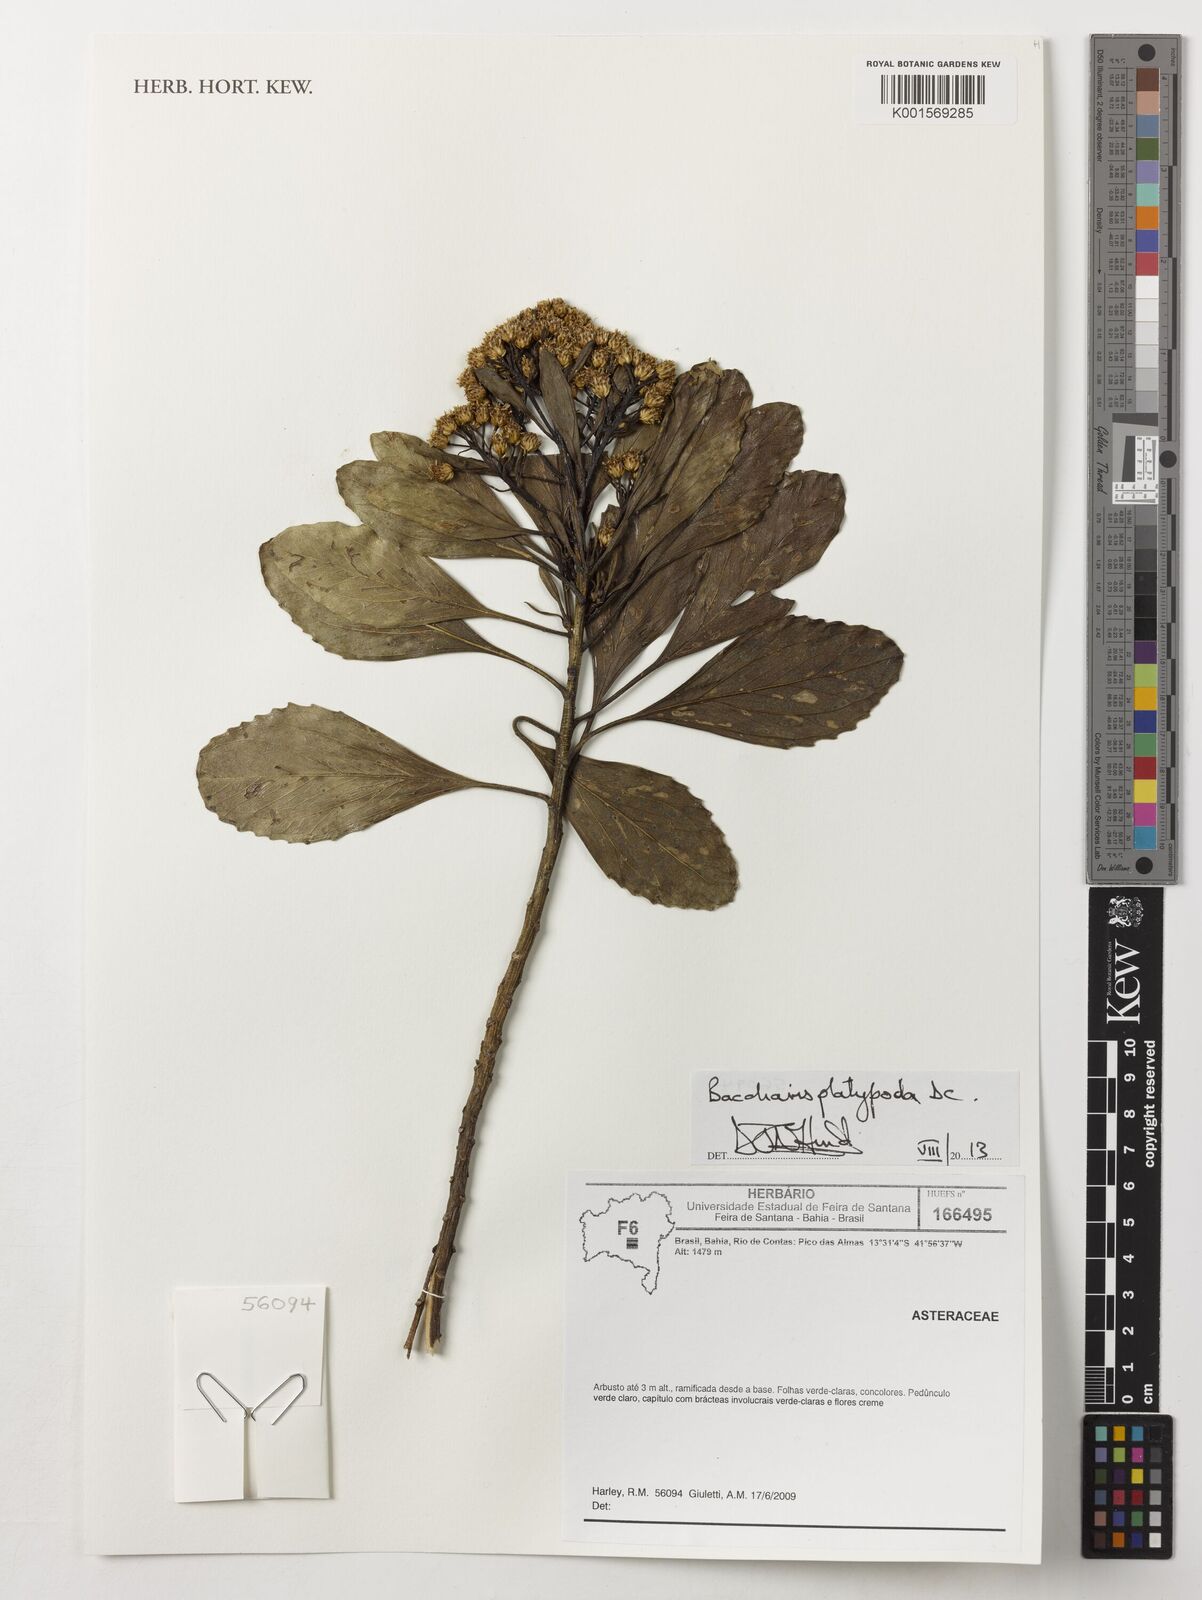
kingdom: Plantae
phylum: Tracheophyta
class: Magnoliopsida
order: Asterales
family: Asteraceae
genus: Baccharis
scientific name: Baccharis platypoda
